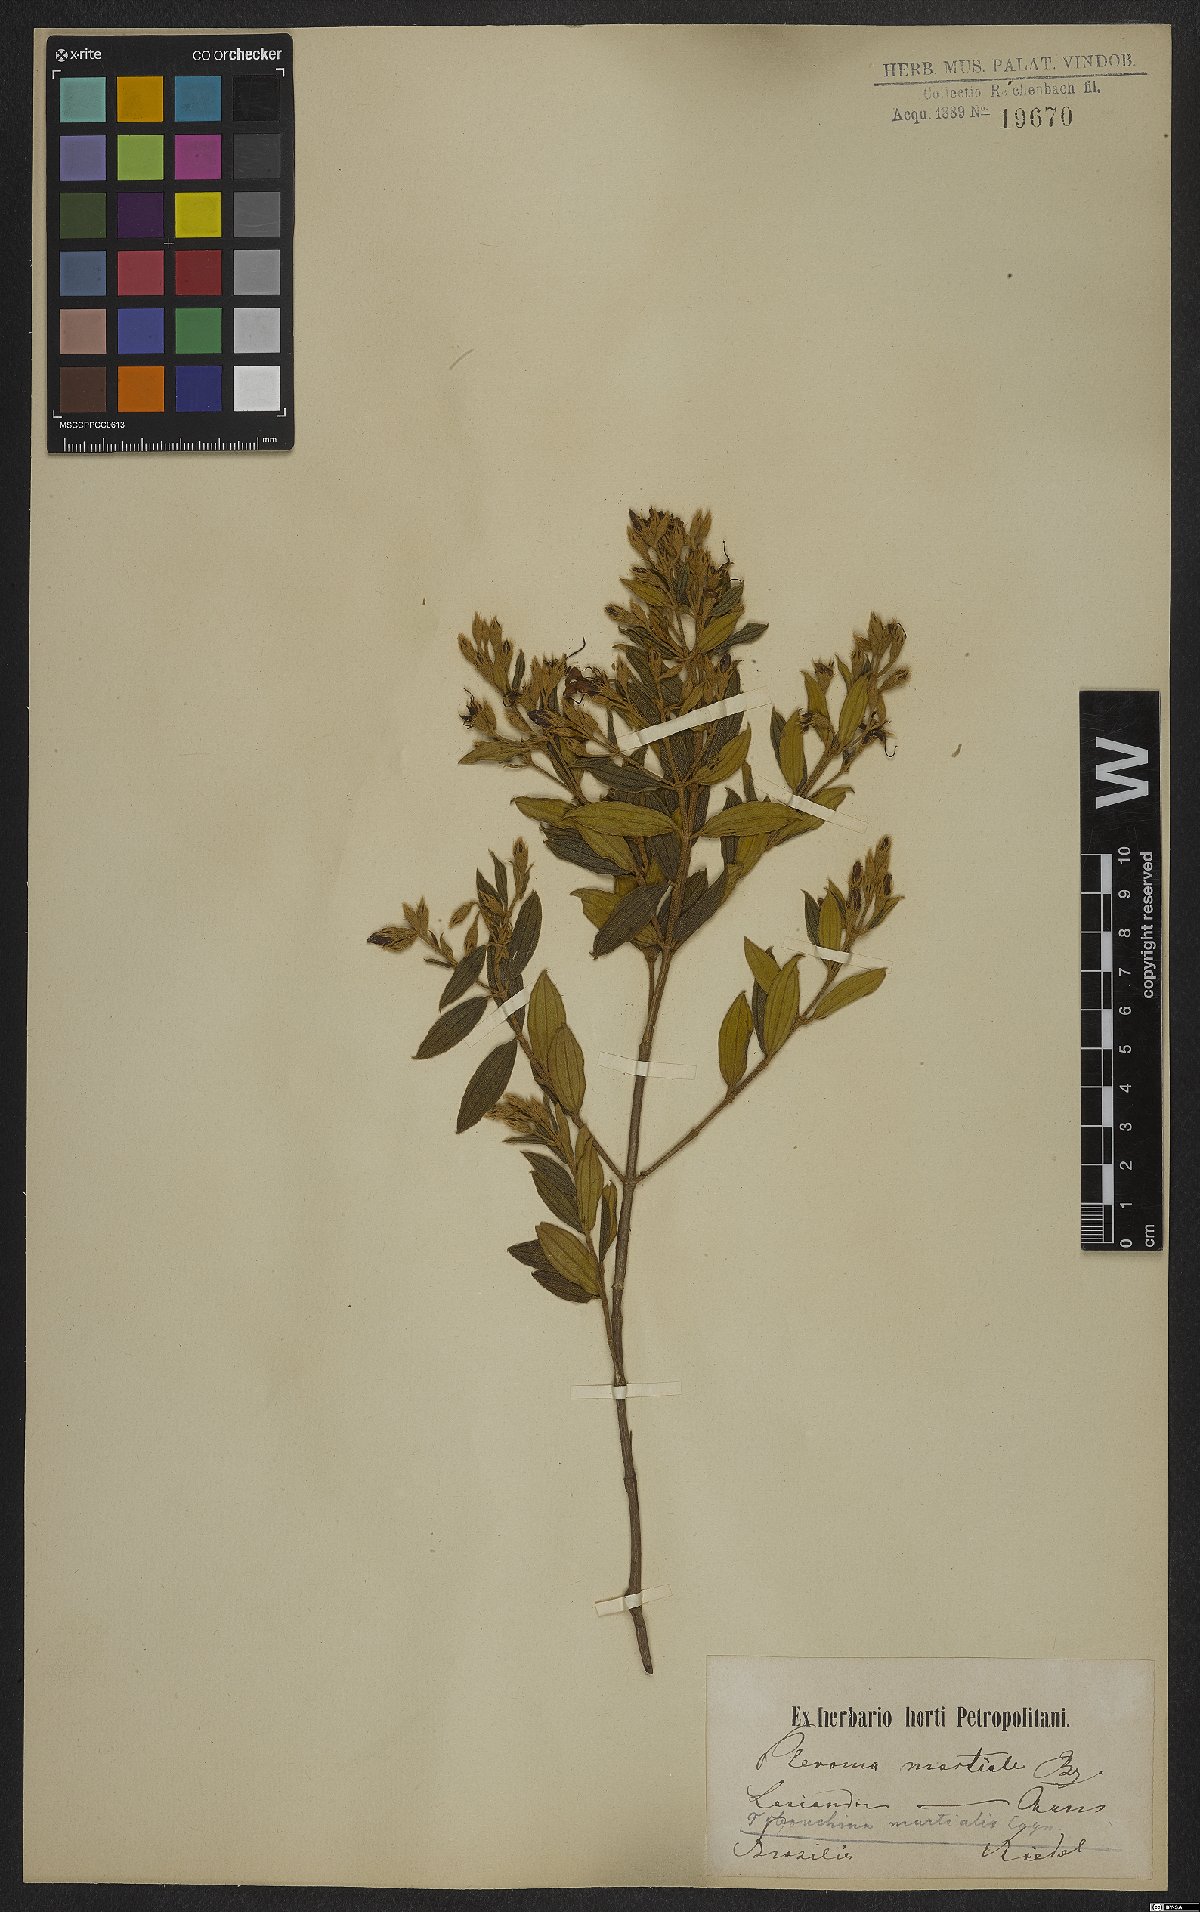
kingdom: Plantae
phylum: Tracheophyta
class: Magnoliopsida
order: Myrtales
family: Melastomataceae
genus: Pleroma
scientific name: Pleroma martiale
